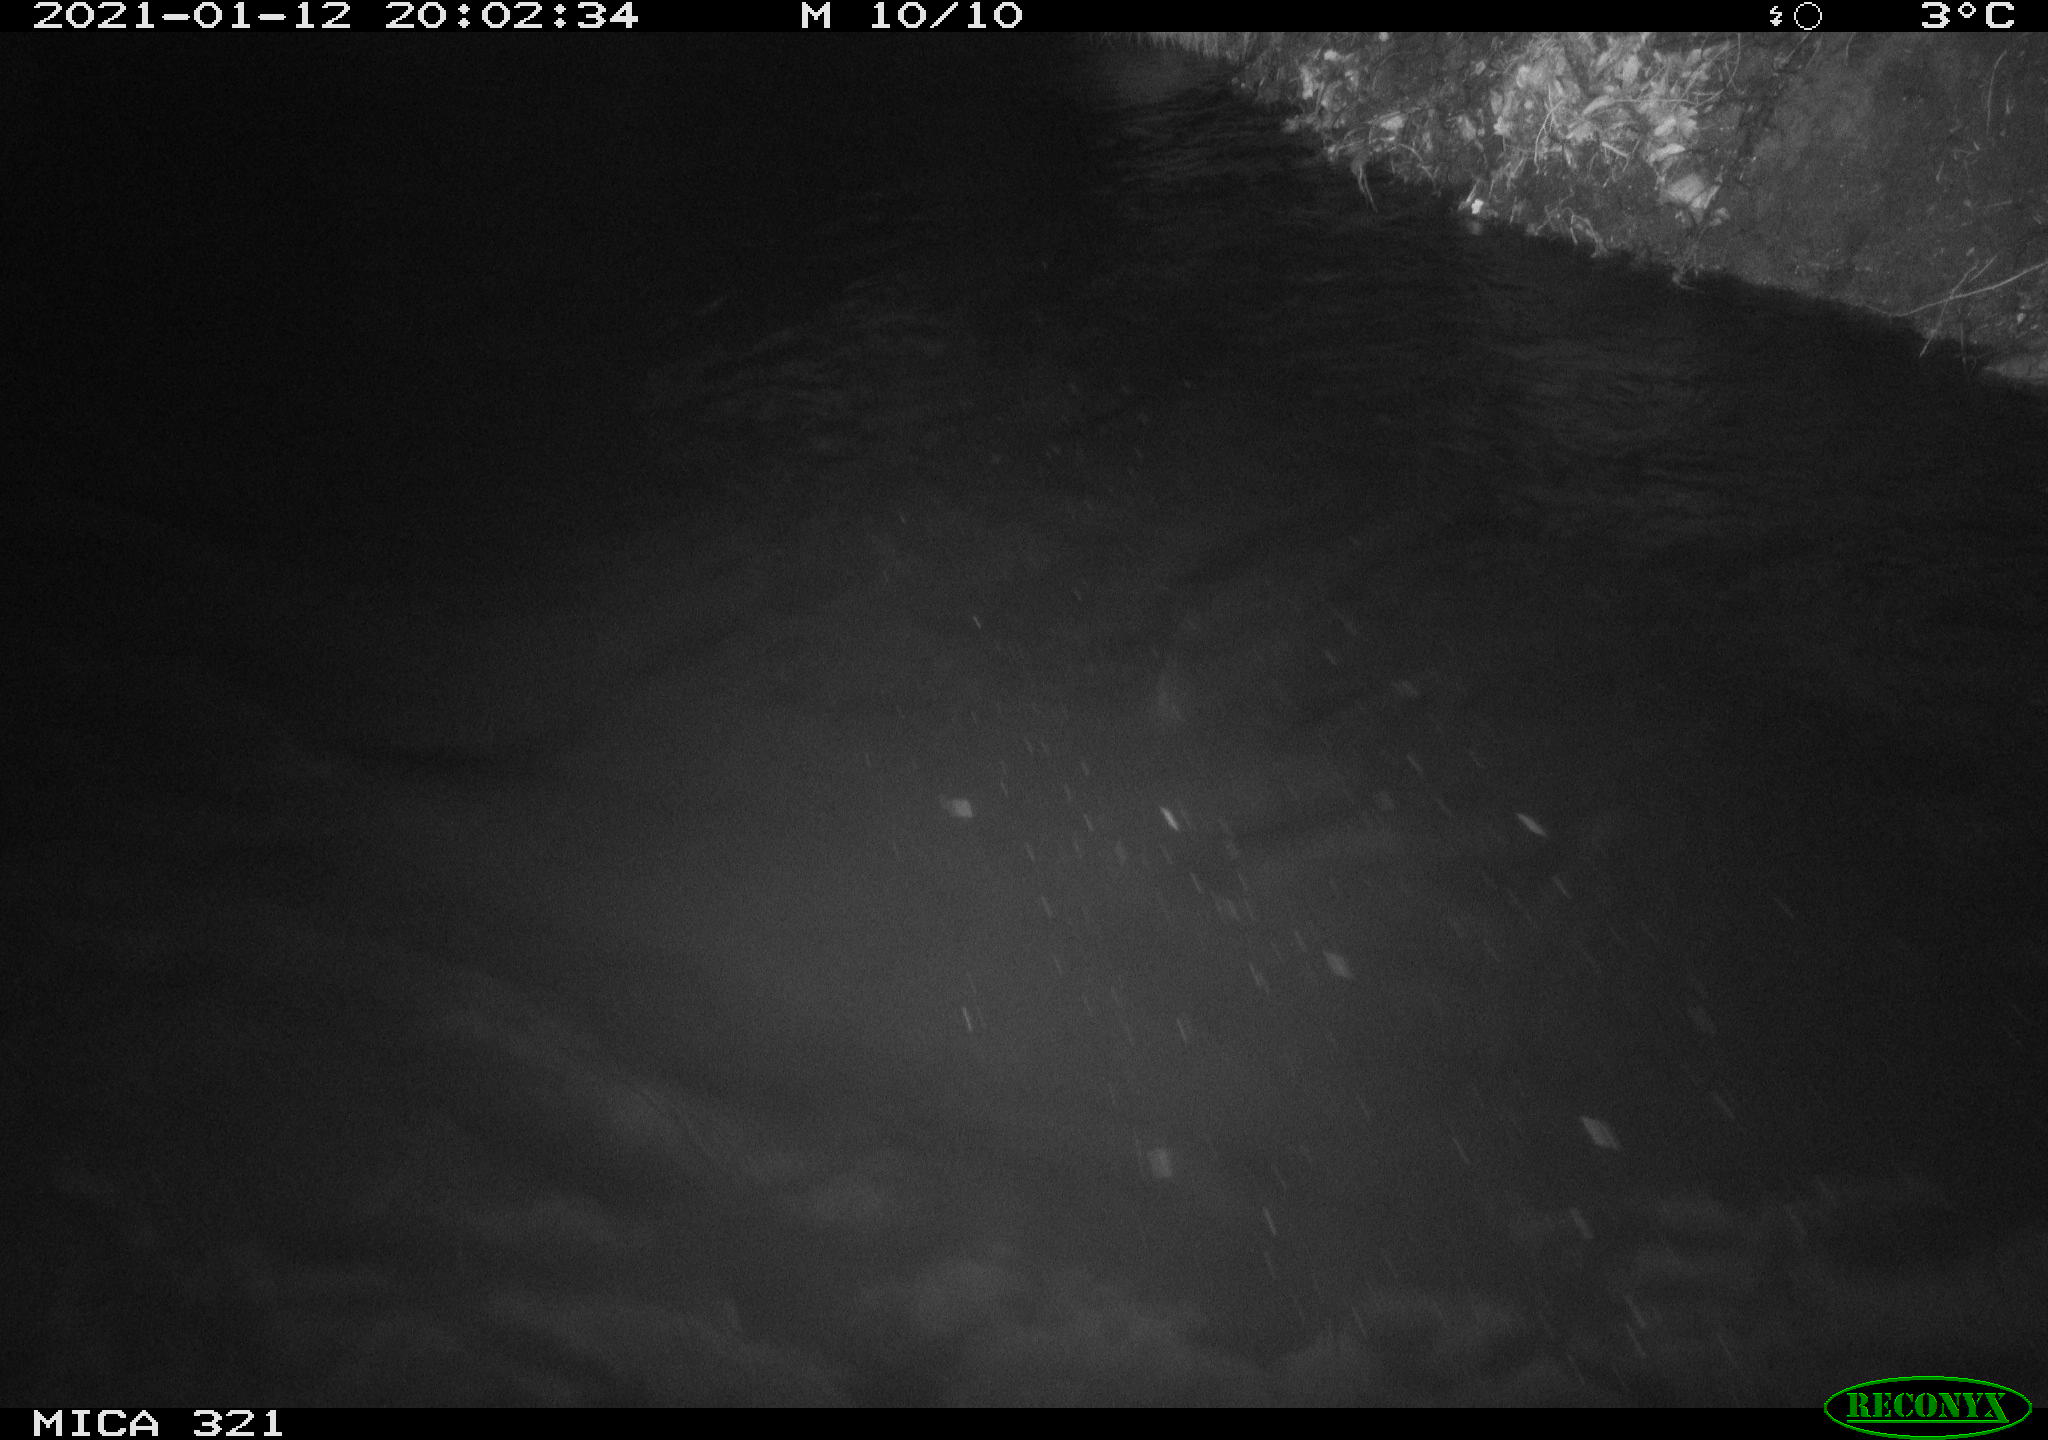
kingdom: Animalia
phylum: Chordata
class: Aves
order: Anseriformes
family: Anatidae
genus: Anas
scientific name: Anas platyrhynchos
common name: Mallard
